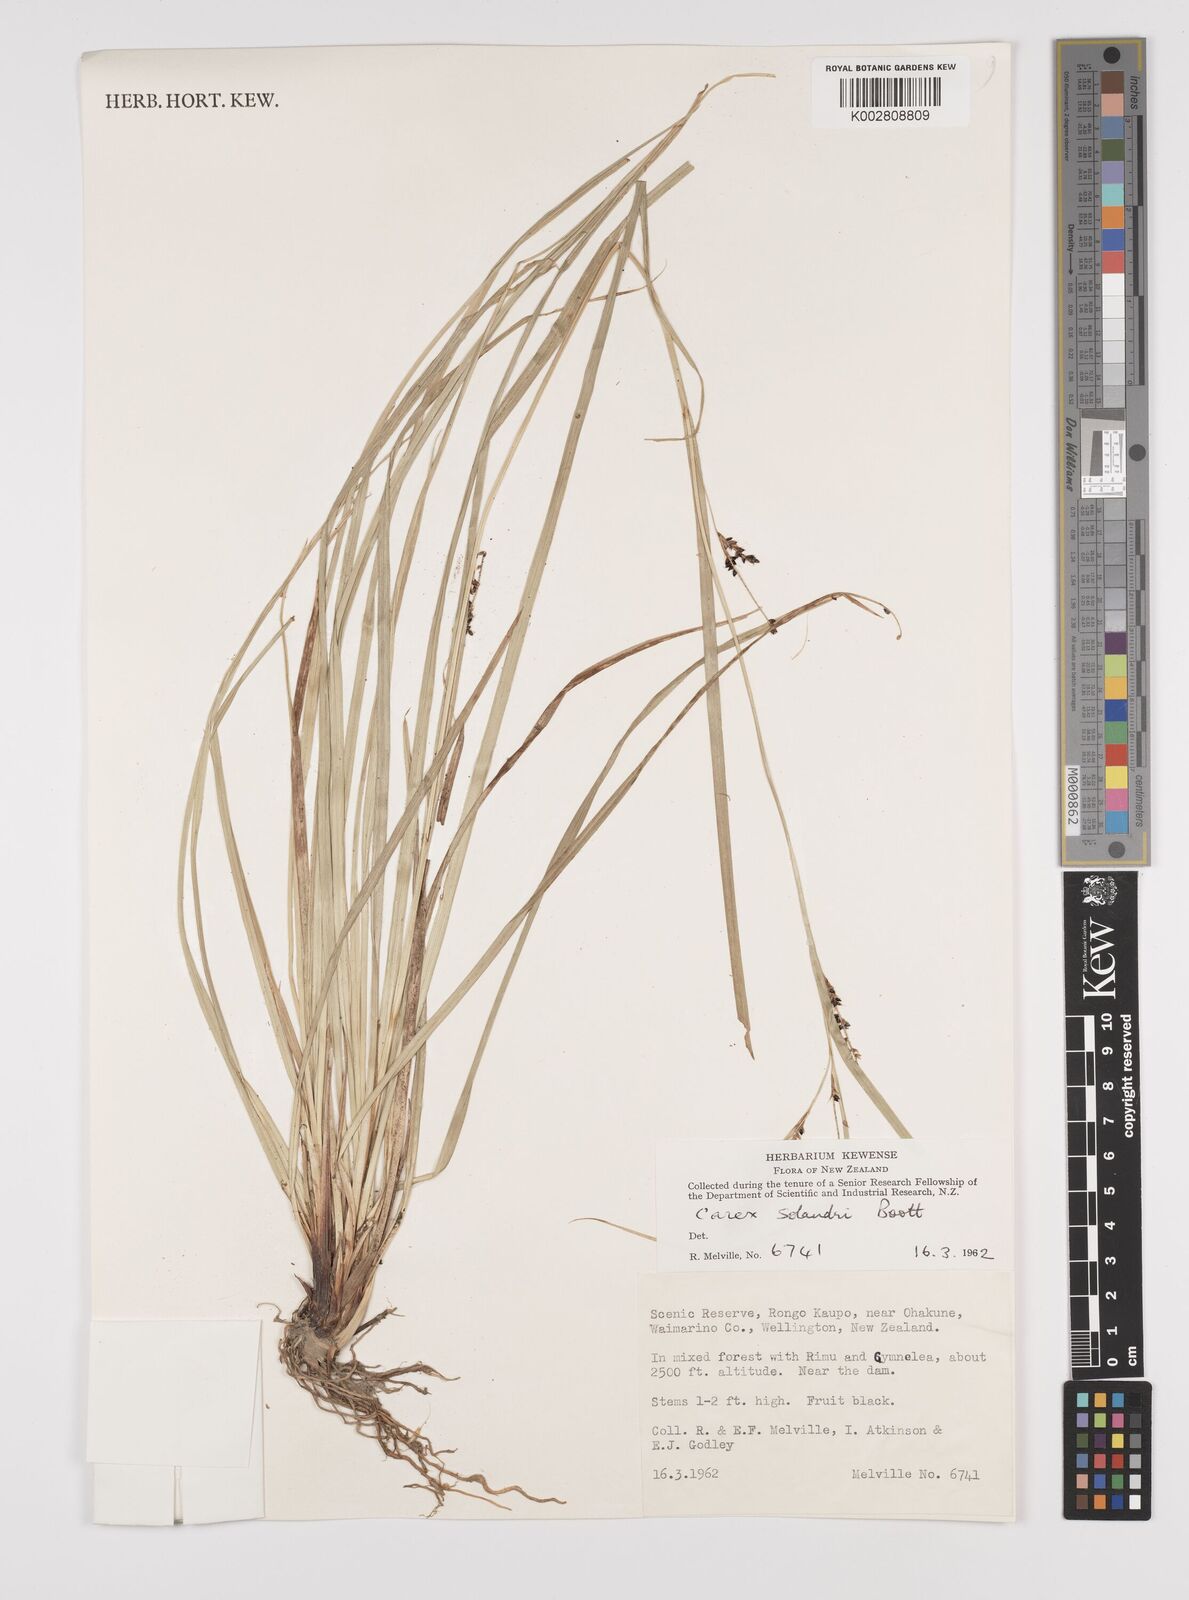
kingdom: Plantae
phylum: Tracheophyta
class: Liliopsida
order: Poales
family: Cyperaceae
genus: Carex
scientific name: Carex dissita
